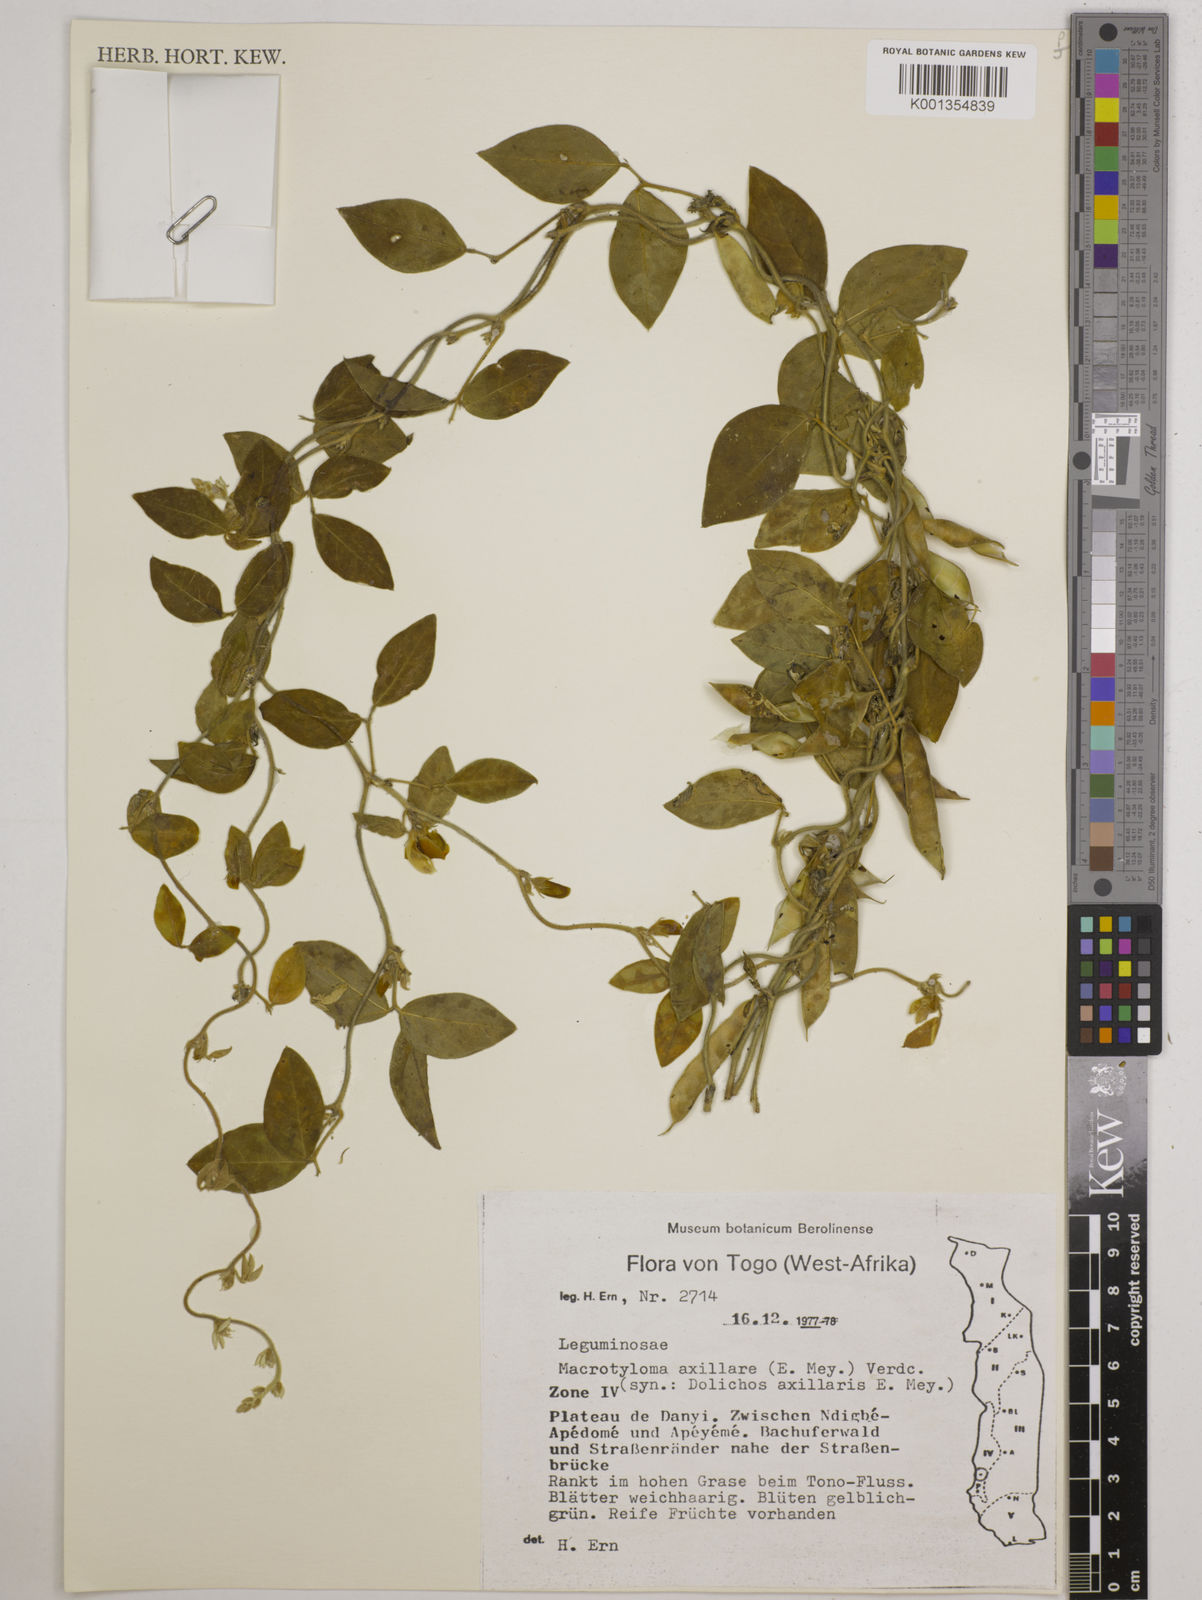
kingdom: Plantae
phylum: Tracheophyta
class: Magnoliopsida
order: Fabales
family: Fabaceae
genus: Macrotyloma
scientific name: Macrotyloma axillare
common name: Perennial horsegram
